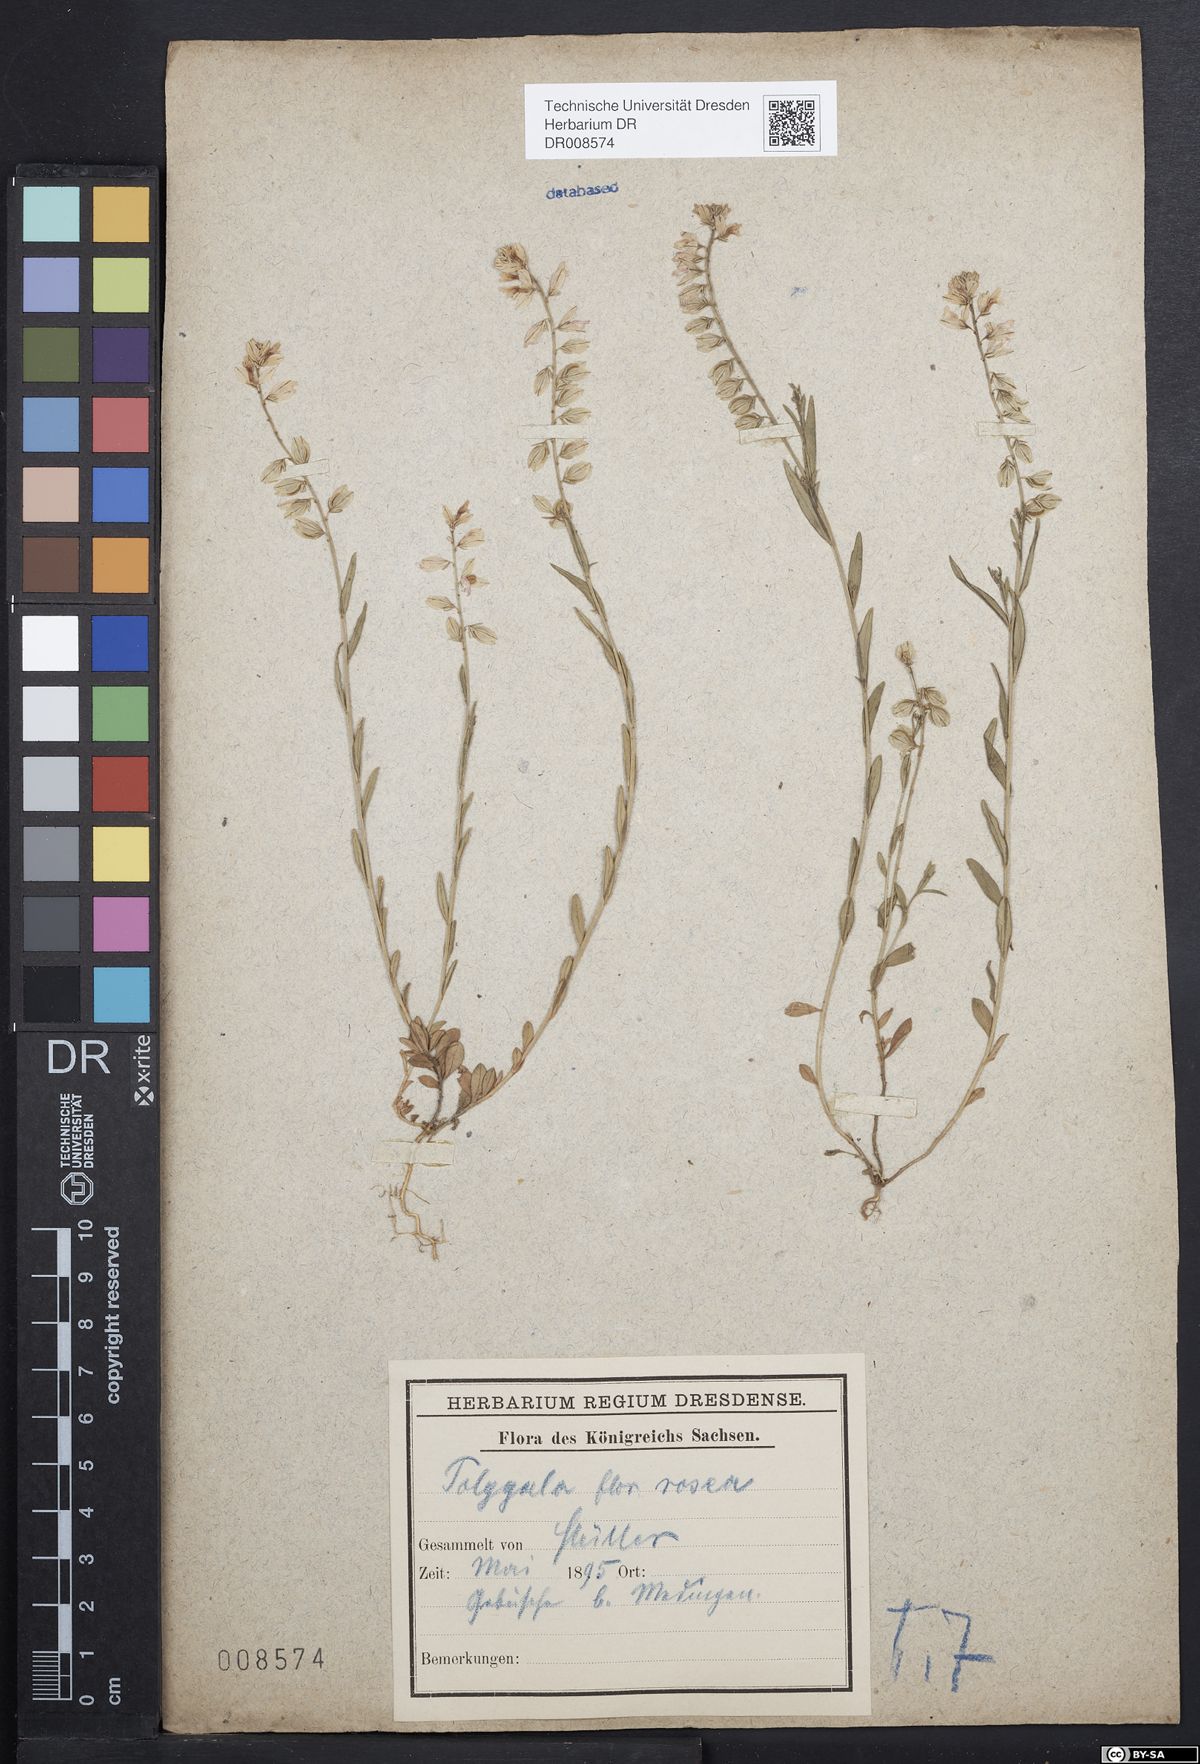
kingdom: Plantae
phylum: Tracheophyta
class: Magnoliopsida
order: Fabales
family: Polygalaceae
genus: Polygala
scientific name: Polygala vulgaris
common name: Common milkwort
